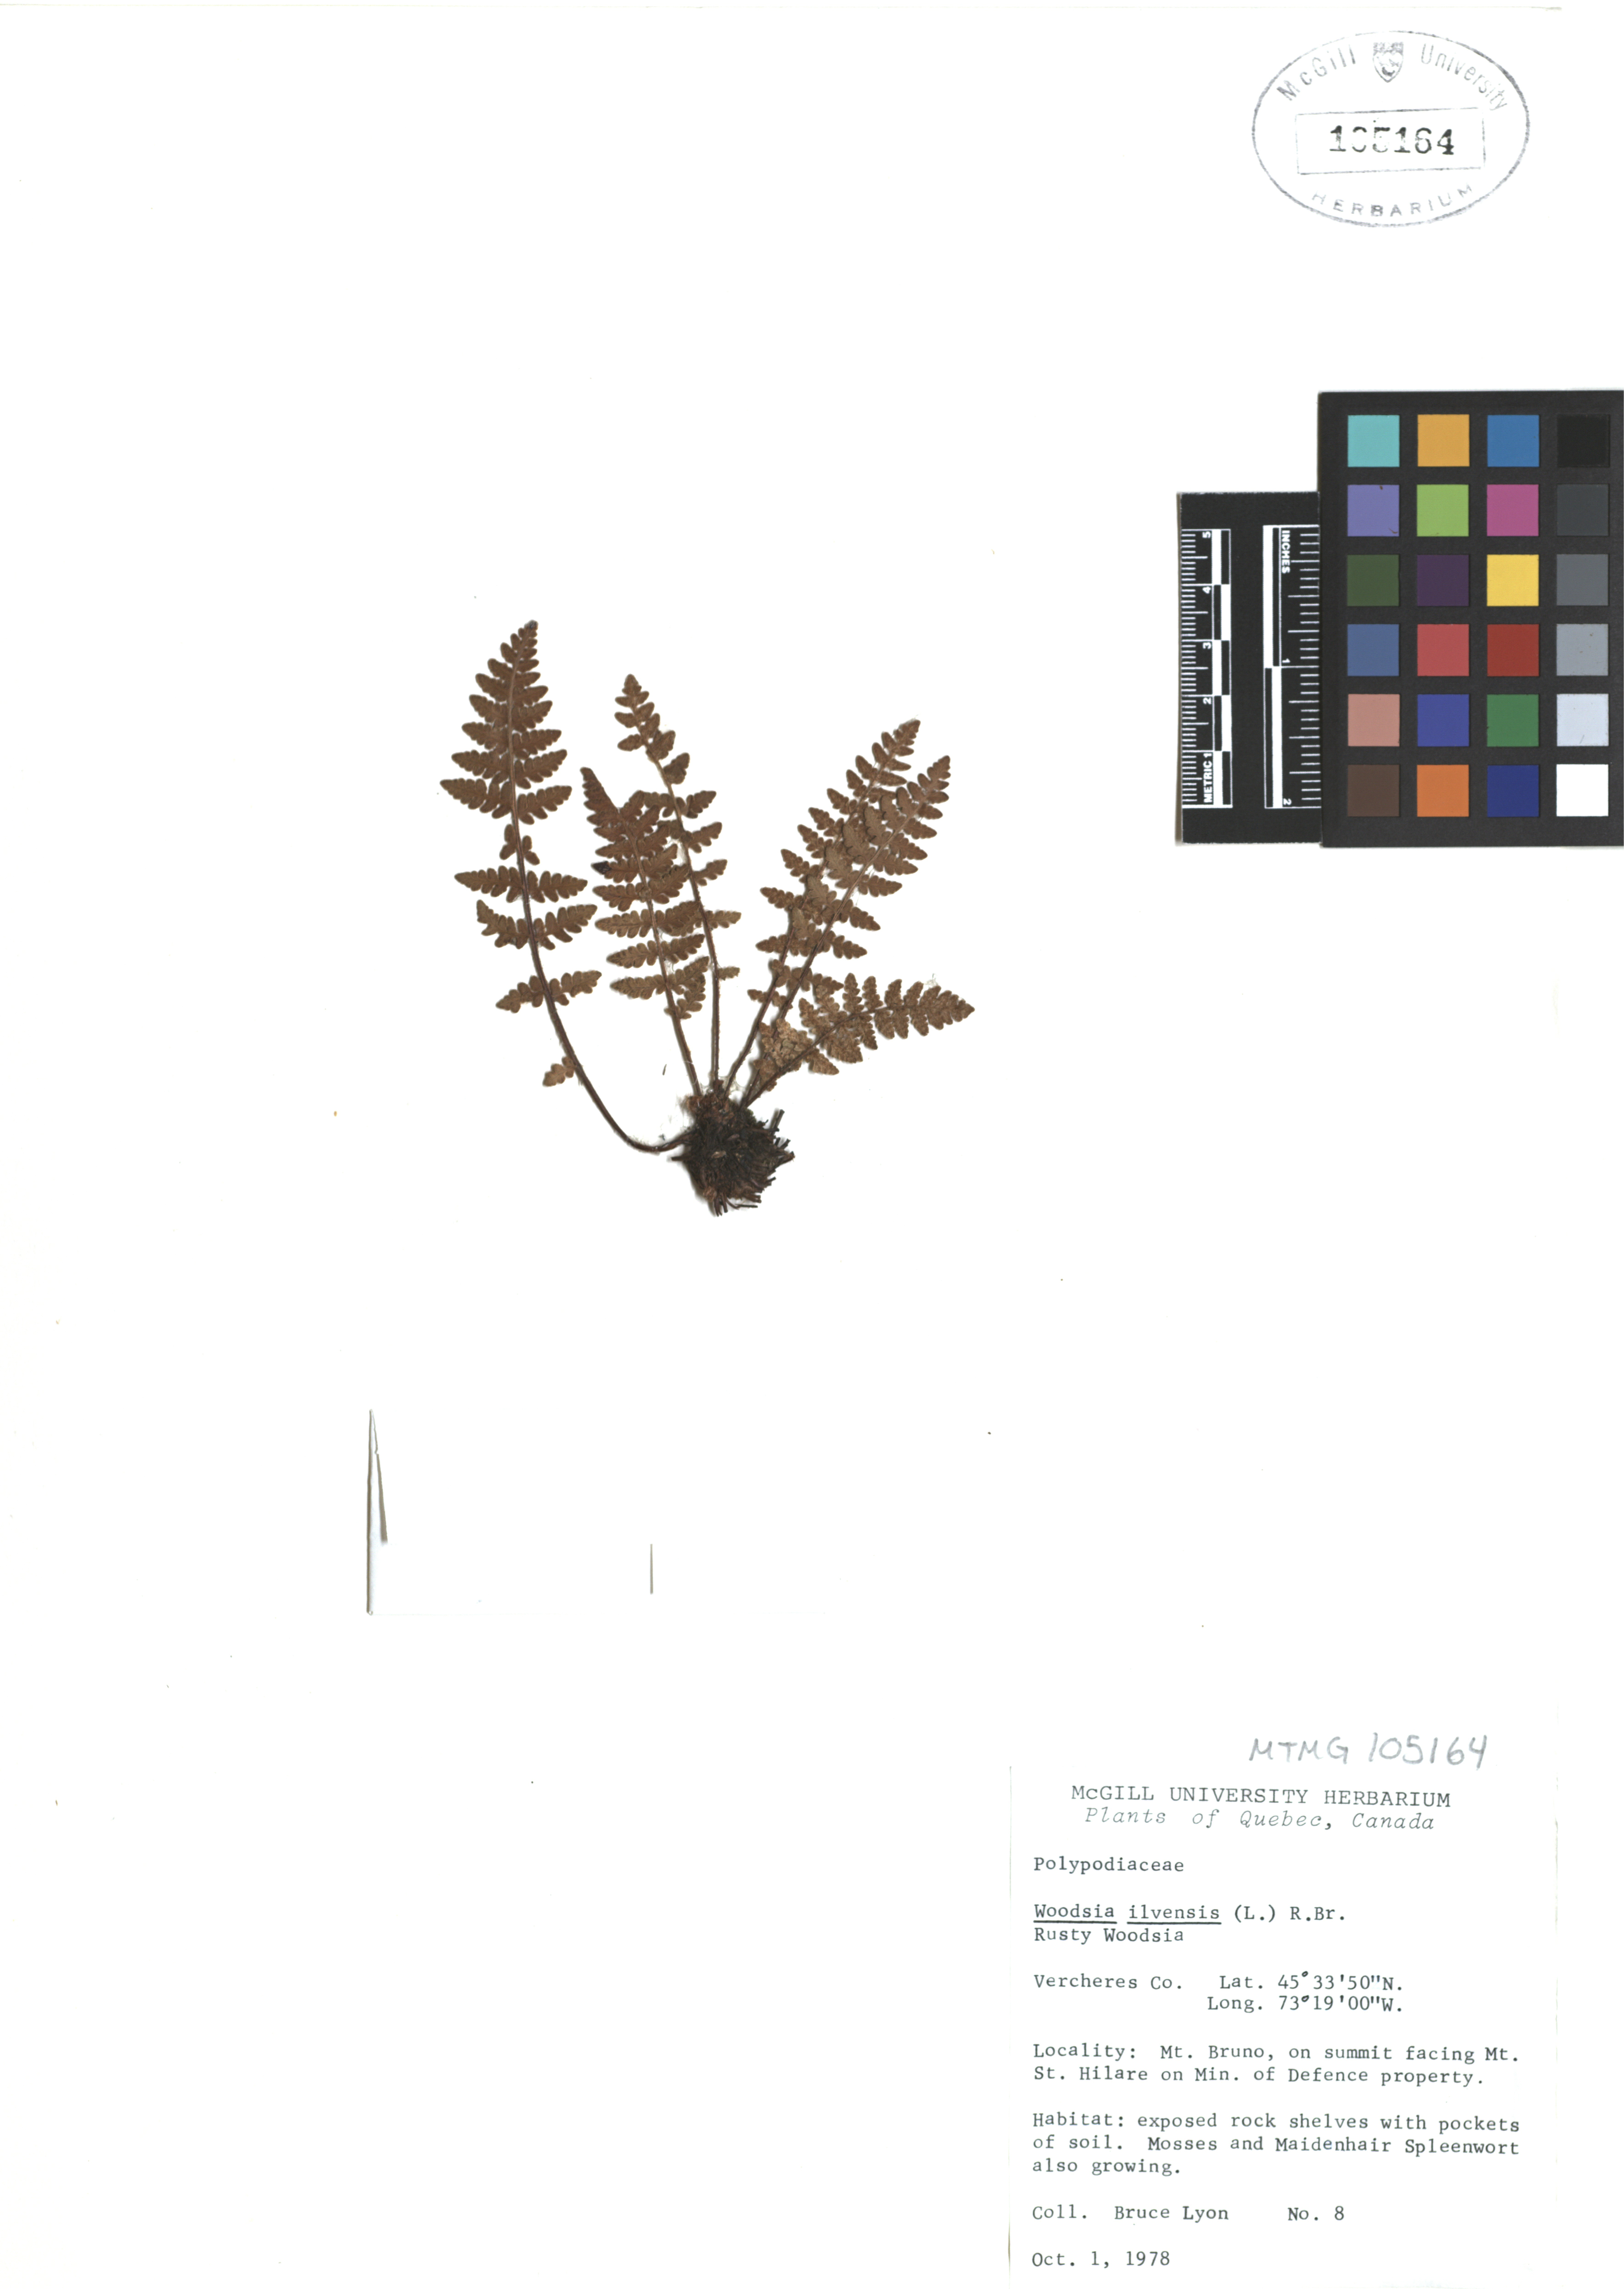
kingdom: Plantae
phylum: Tracheophyta
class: Polypodiopsida
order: Polypodiales
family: Woodsiaceae
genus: Woodsia
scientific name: Woodsia ilvensis
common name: Fragrant woodsia
